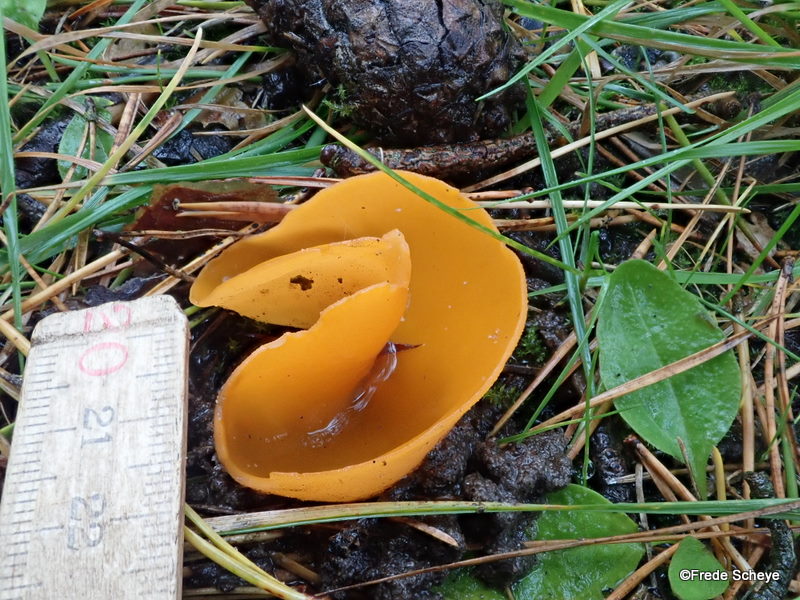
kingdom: Fungi
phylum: Ascomycota
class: Pezizomycetes
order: Pezizales
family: Pyronemataceae
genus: Aleuria
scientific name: Aleuria aurantia
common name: almindelig orangebæger
